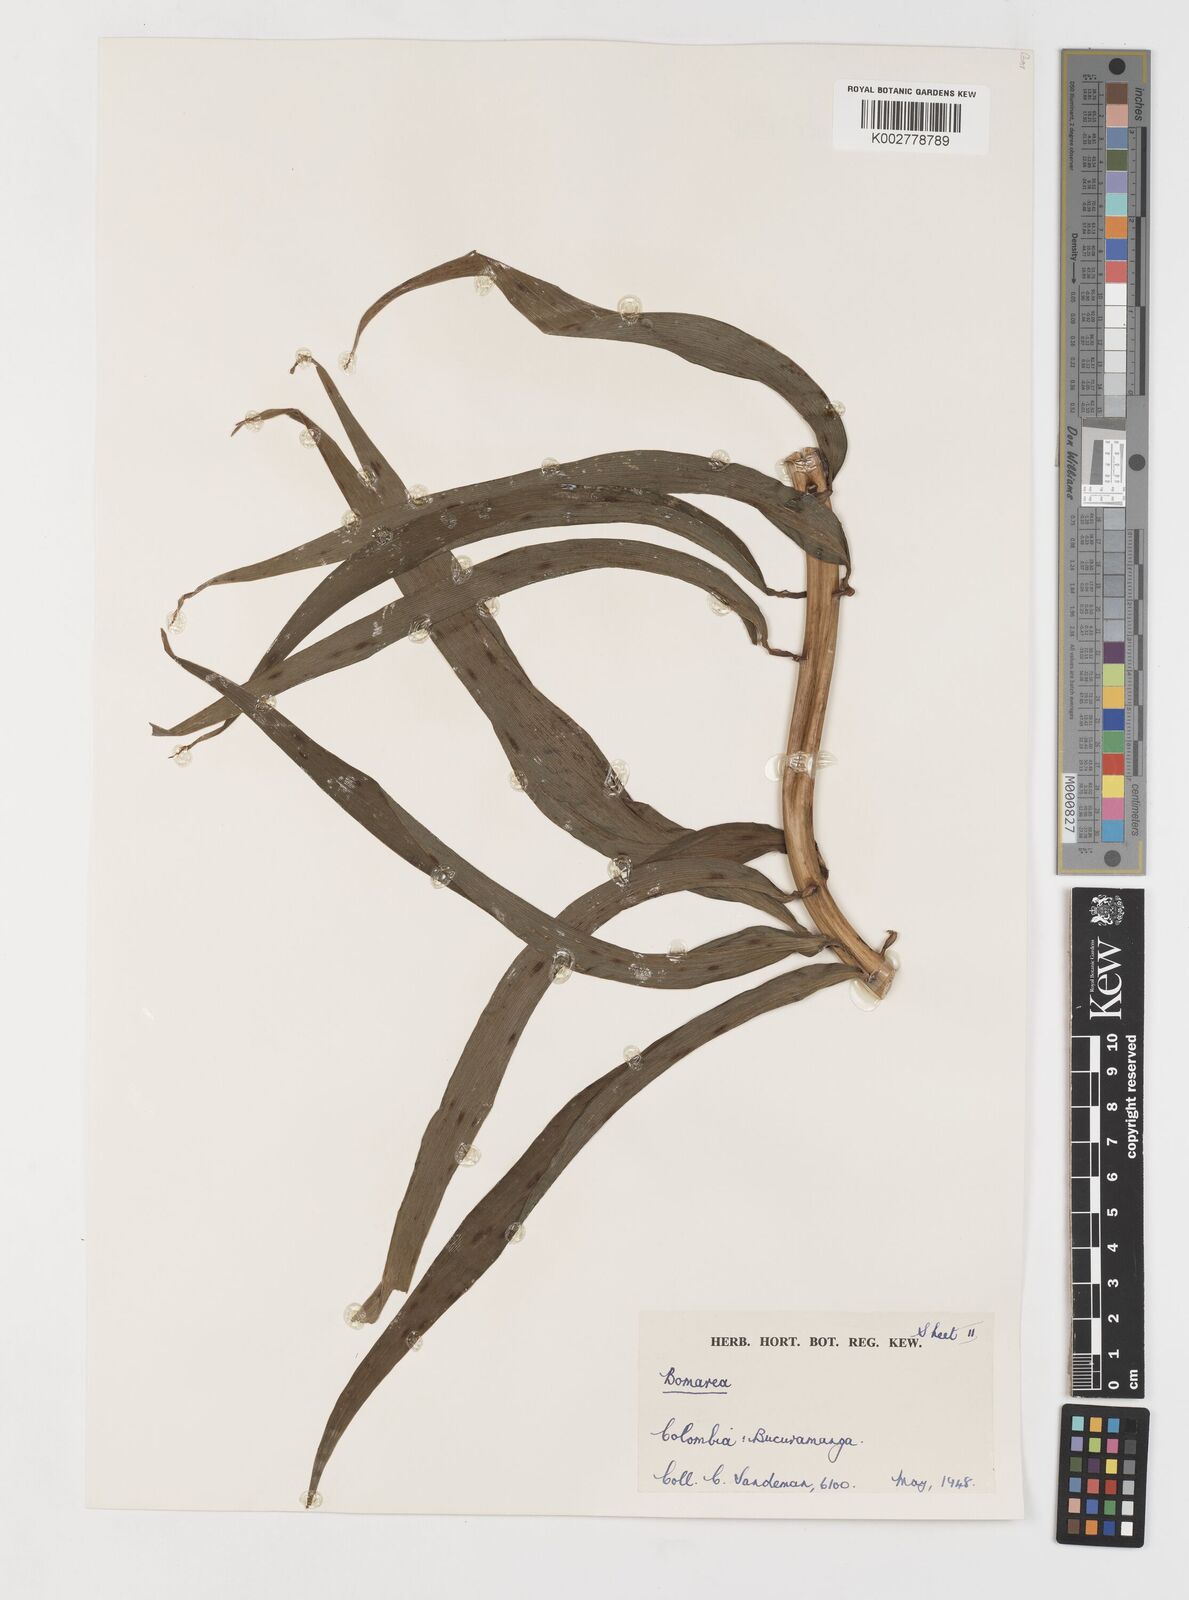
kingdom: Plantae
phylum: Tracheophyta
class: Liliopsida
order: Liliales
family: Alstroemeriaceae
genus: Bomarea
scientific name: Bomarea patacocensis
